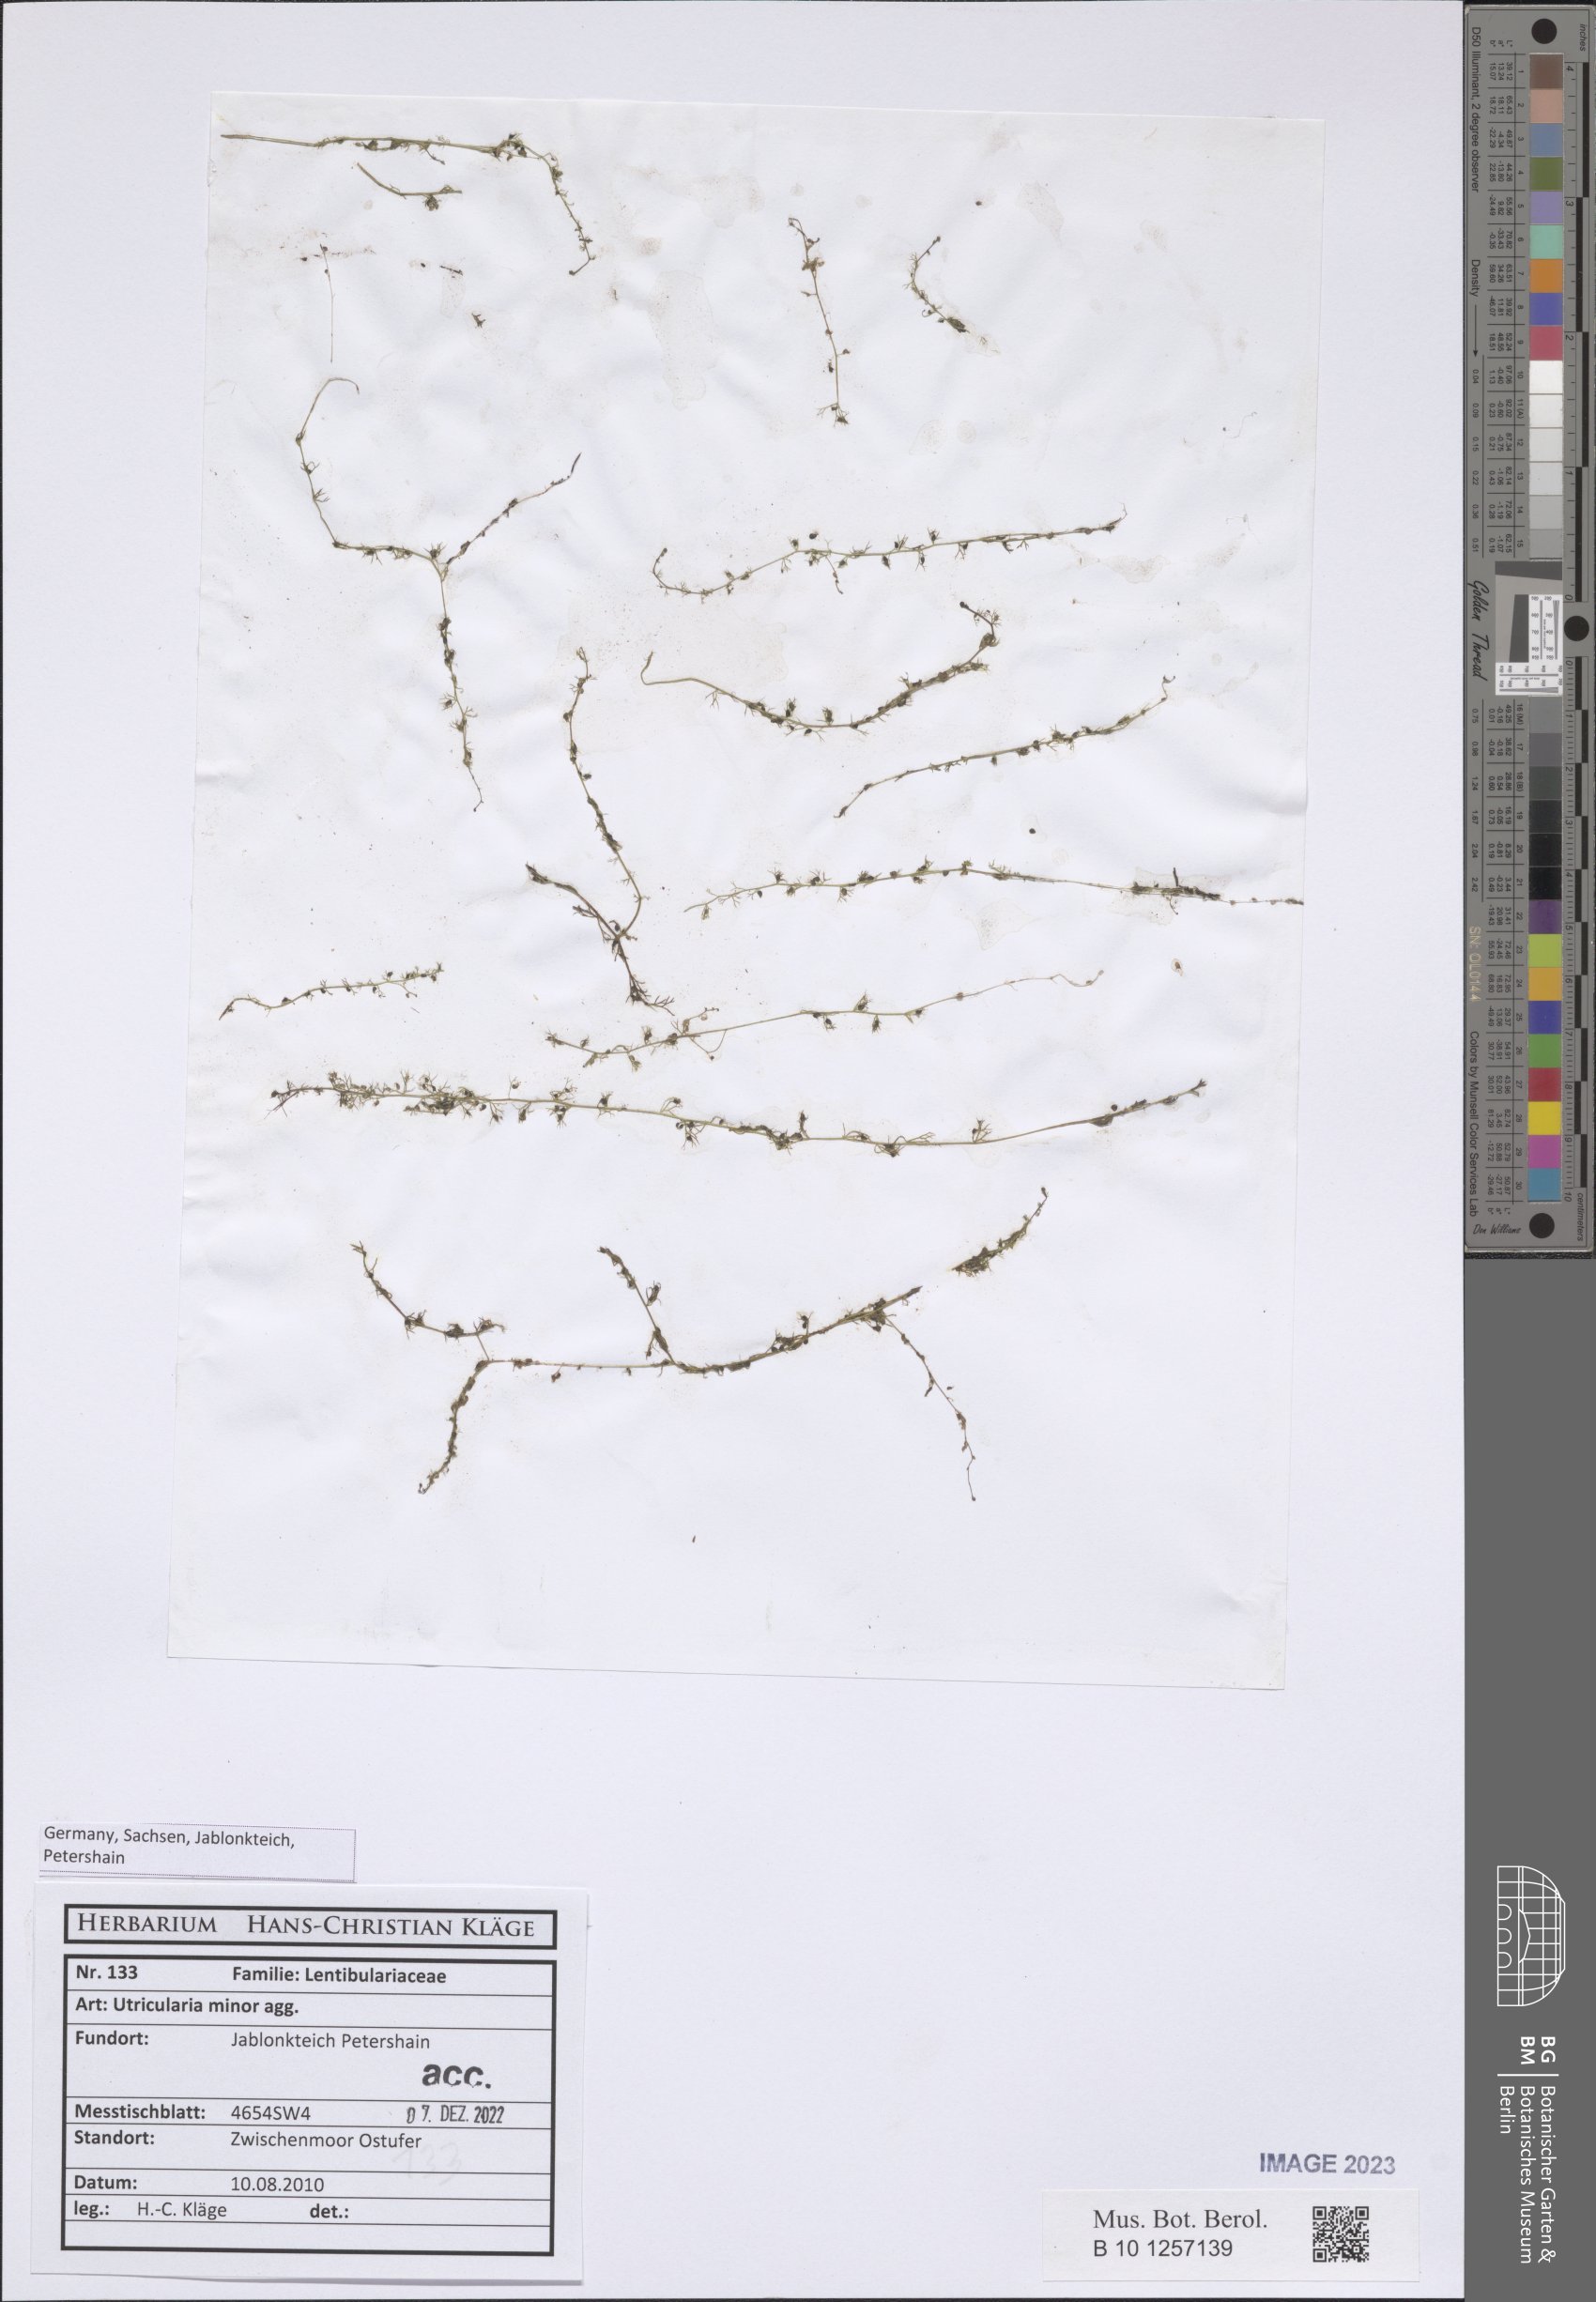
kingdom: Plantae
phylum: Tracheophyta
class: Magnoliopsida
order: Lamiales
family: Lentibulariaceae
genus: Utricularia
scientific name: Utricularia minor
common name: Lesser bladderwort
